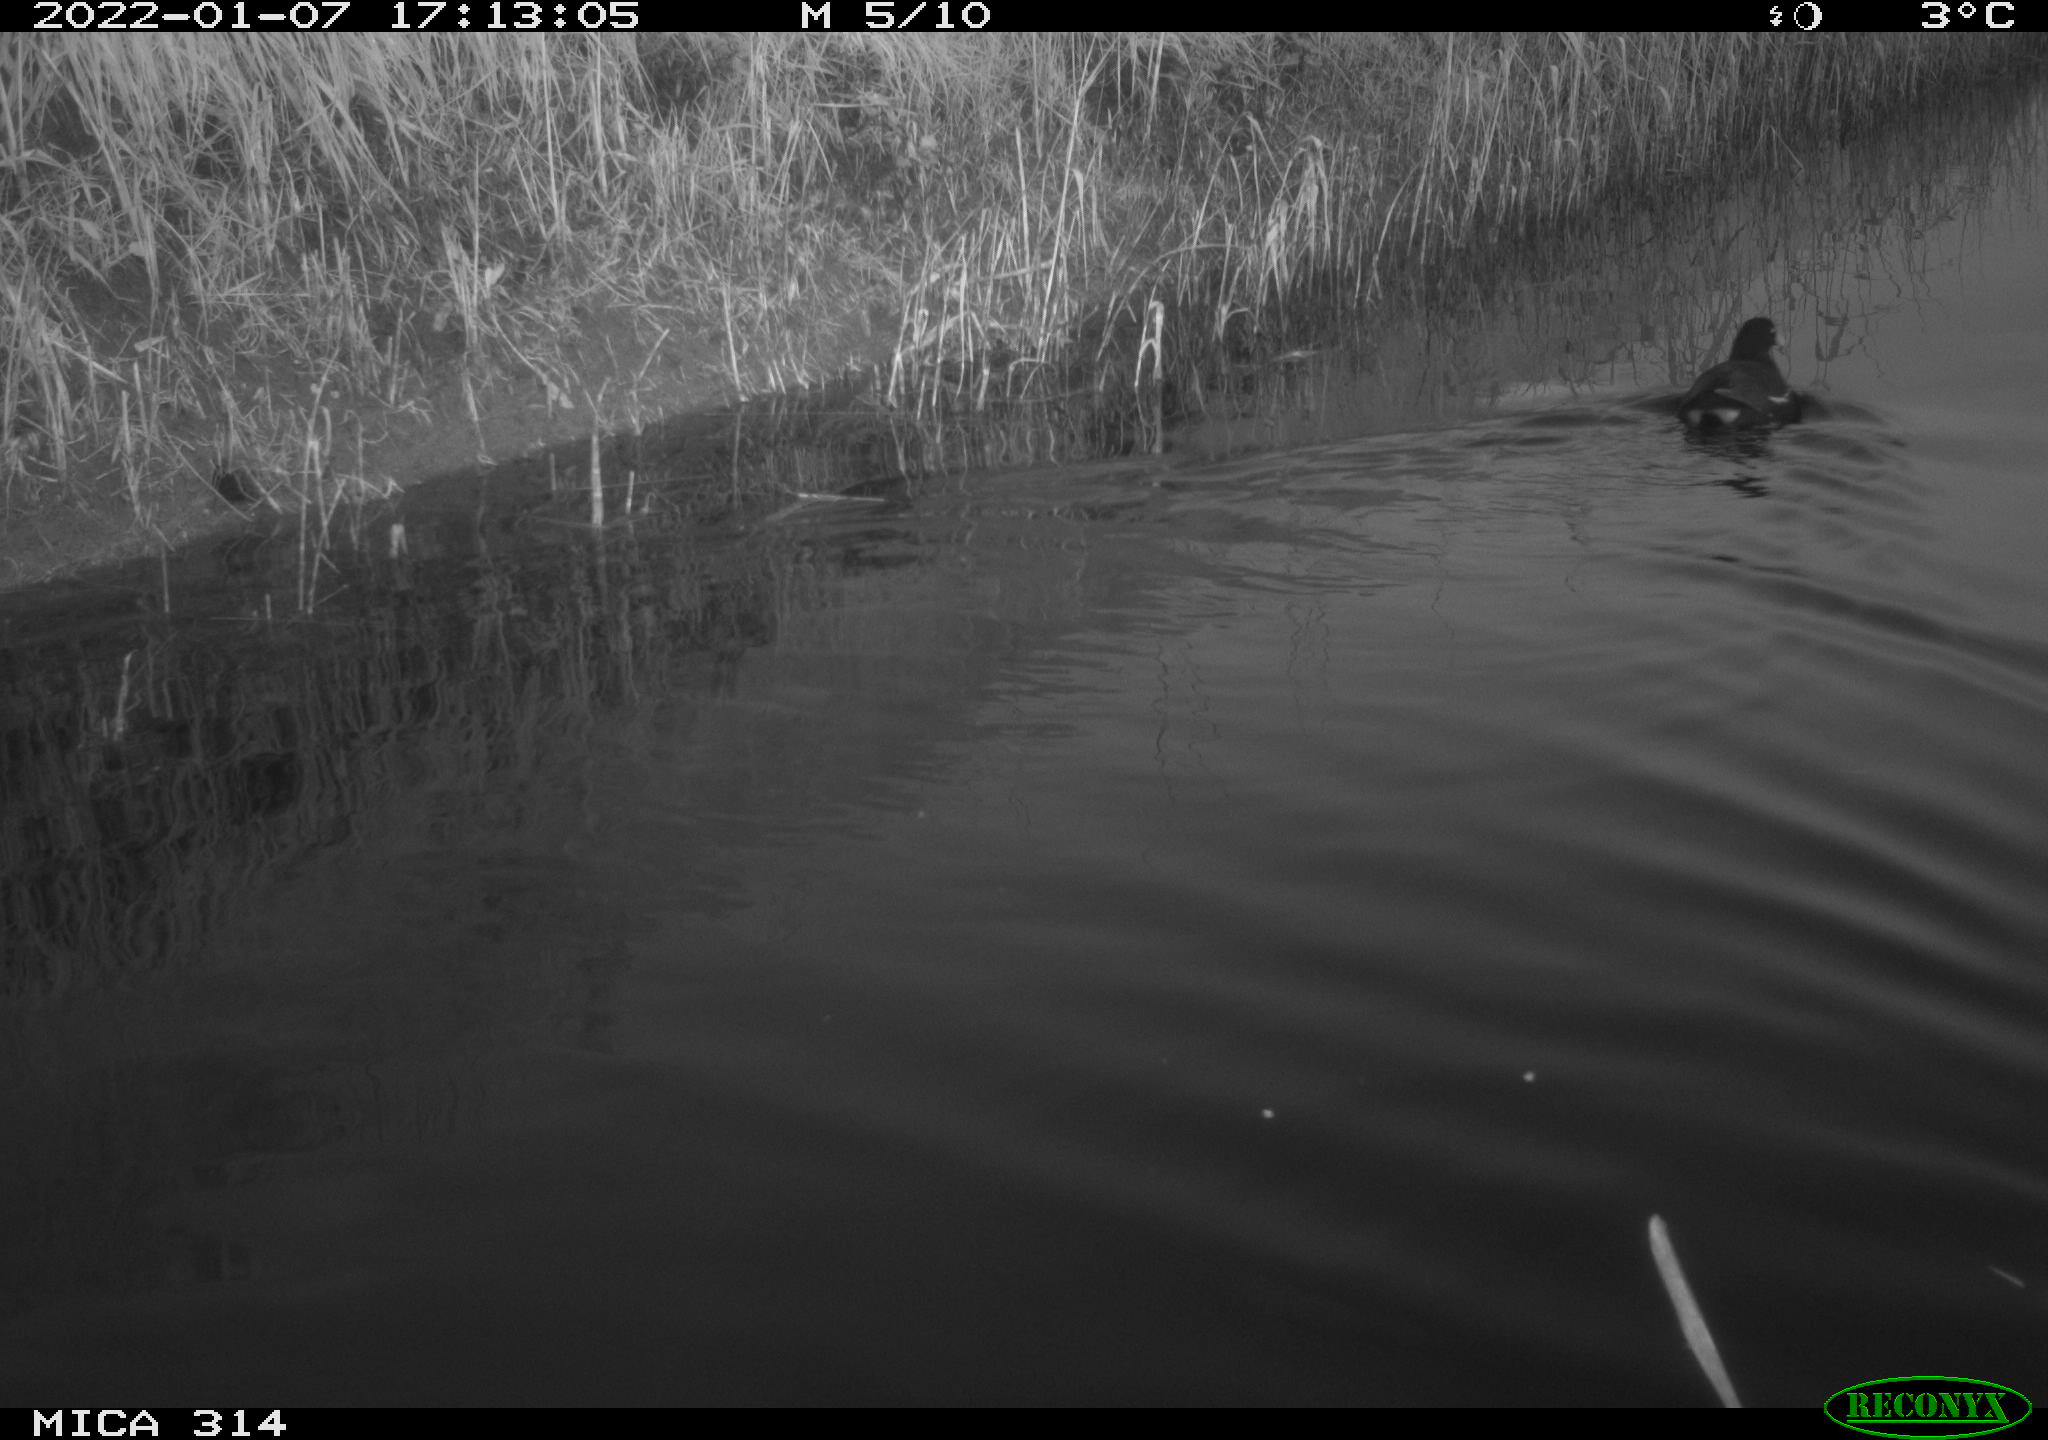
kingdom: Animalia
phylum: Chordata
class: Aves
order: Gruiformes
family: Rallidae
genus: Gallinula
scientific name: Gallinula chloropus
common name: Common moorhen
